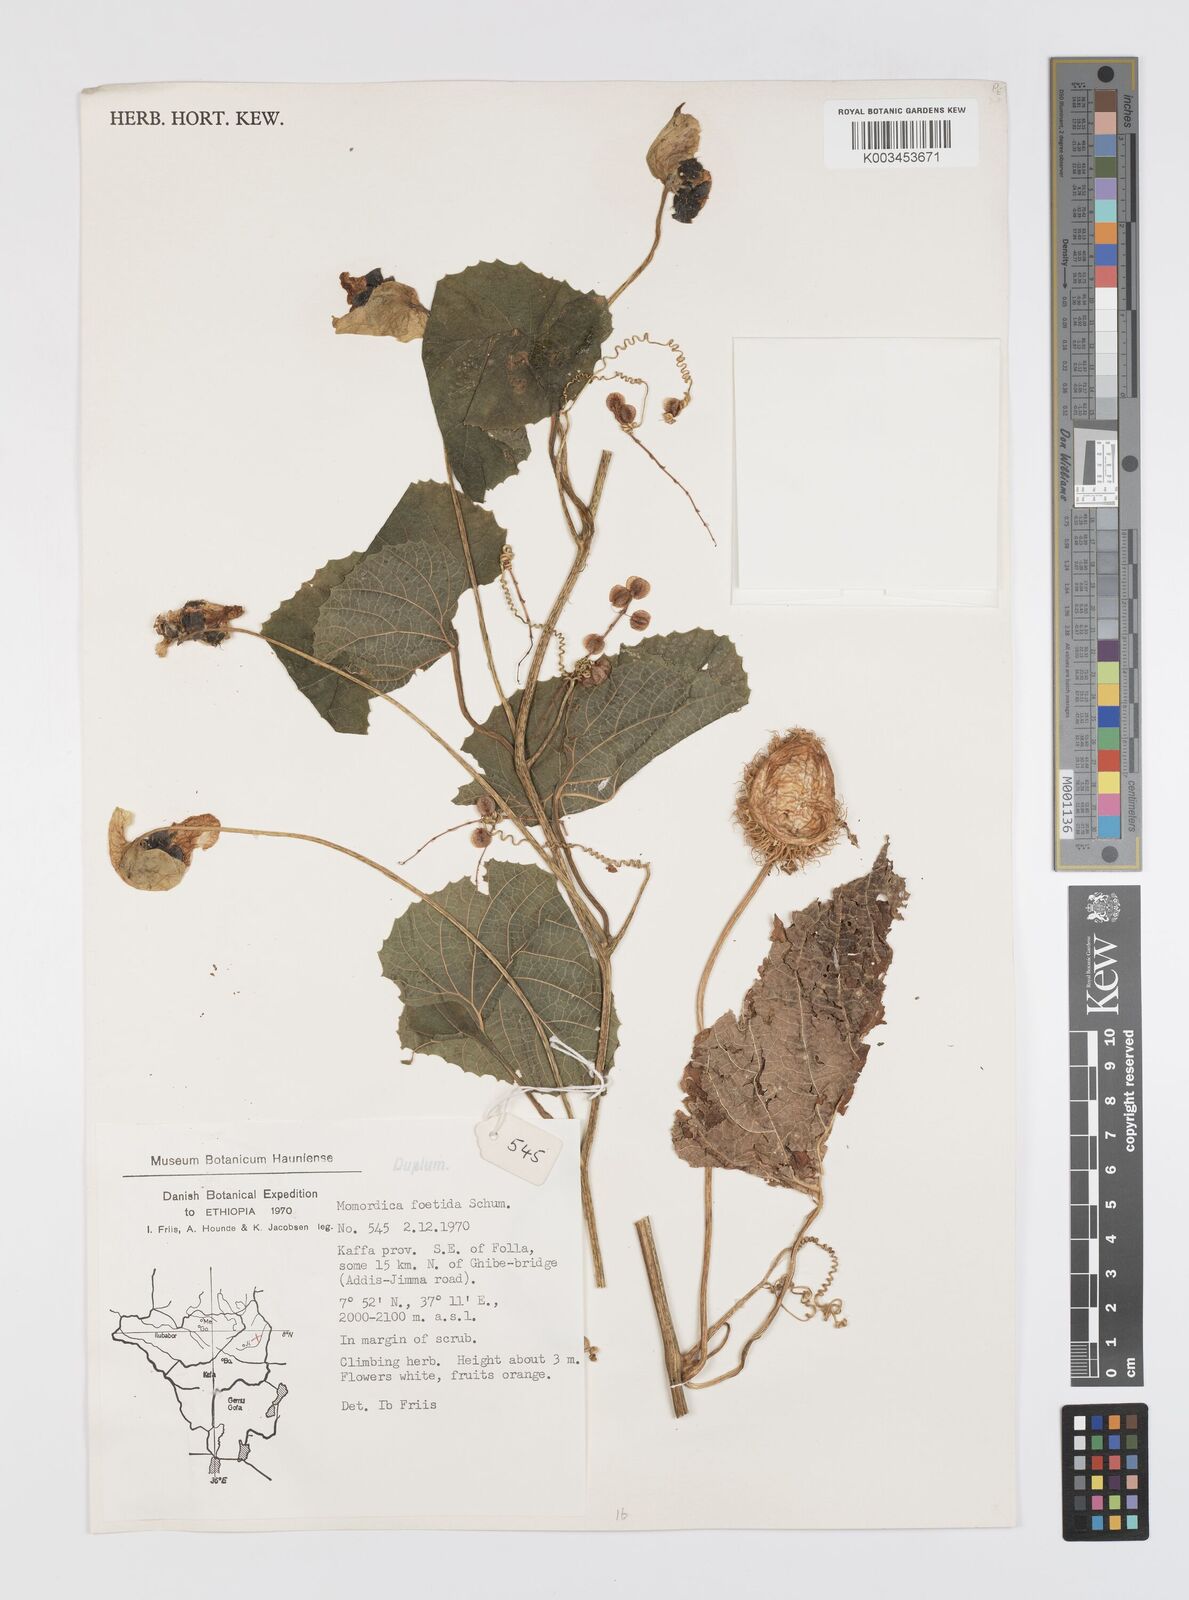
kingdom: Plantae
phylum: Tracheophyta
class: Magnoliopsida
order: Cucurbitales
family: Cucurbitaceae
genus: Momordica
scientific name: Momordica foetida
